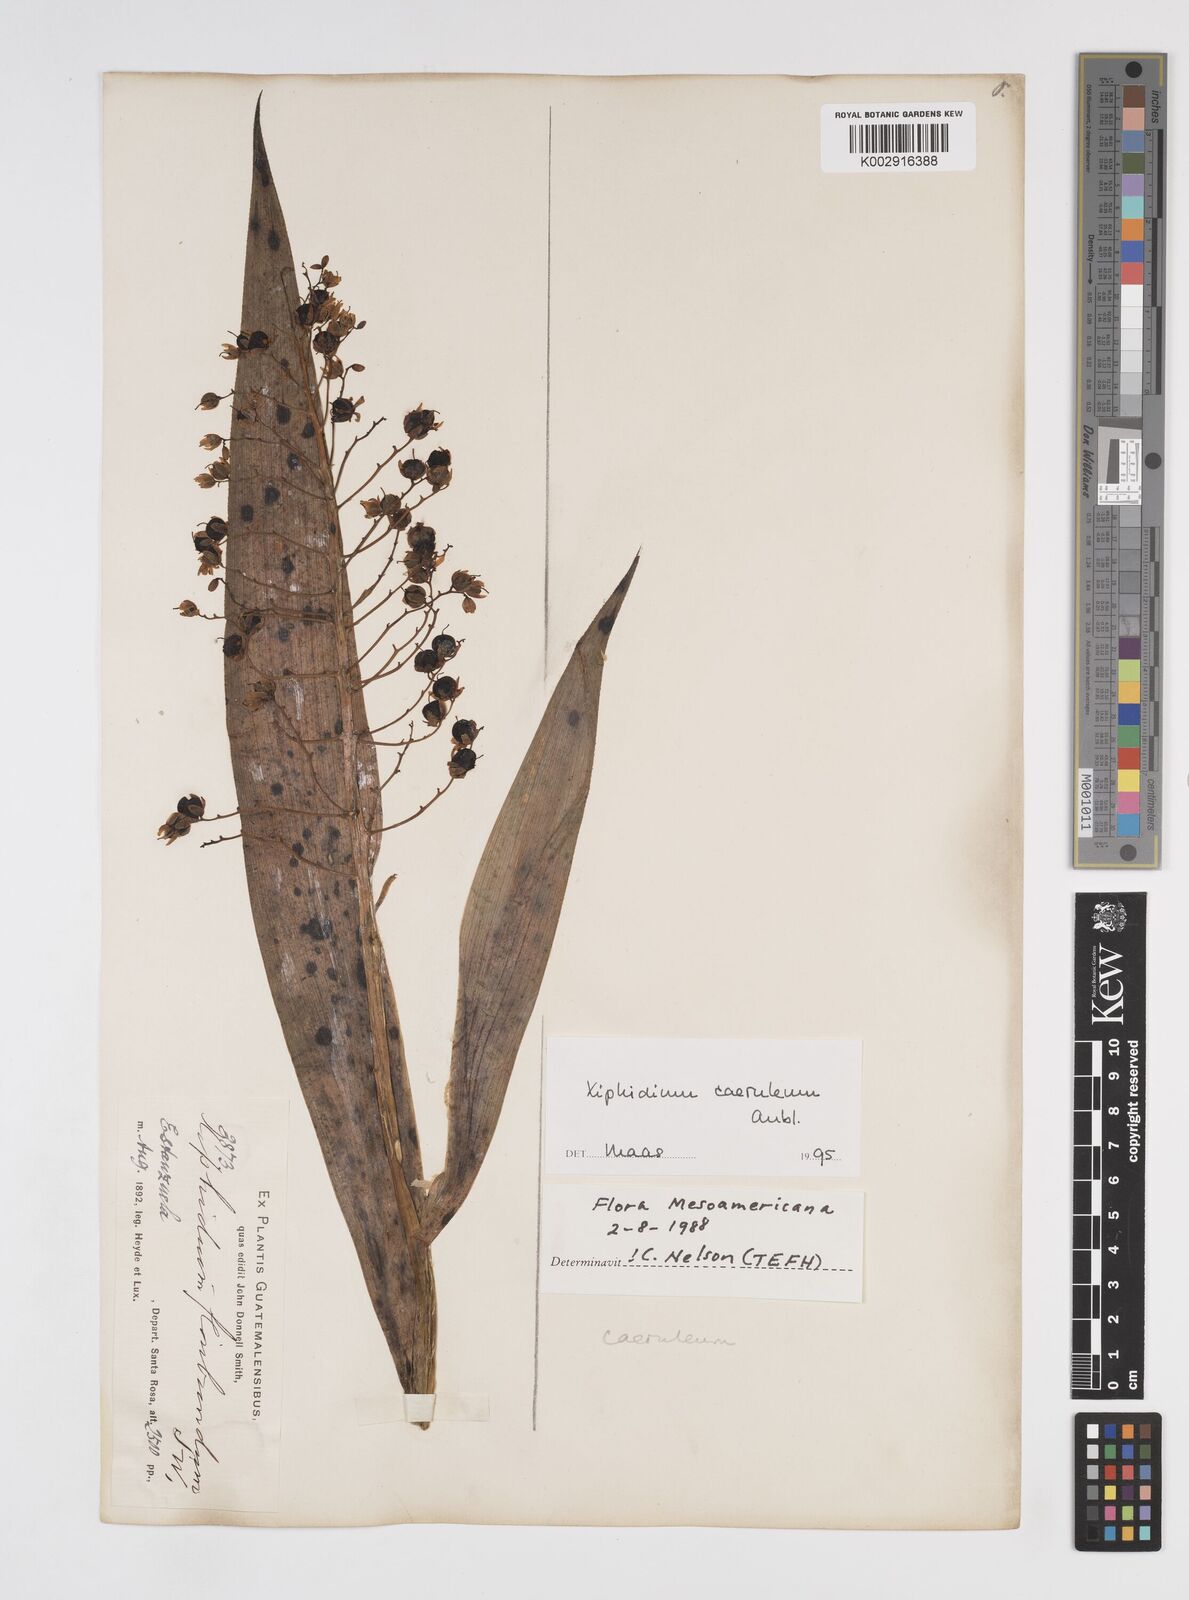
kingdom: Plantae
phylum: Tracheophyta
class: Liliopsida
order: Commelinales
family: Haemodoraceae
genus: Xiphidium
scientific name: Xiphidium caeruleum
